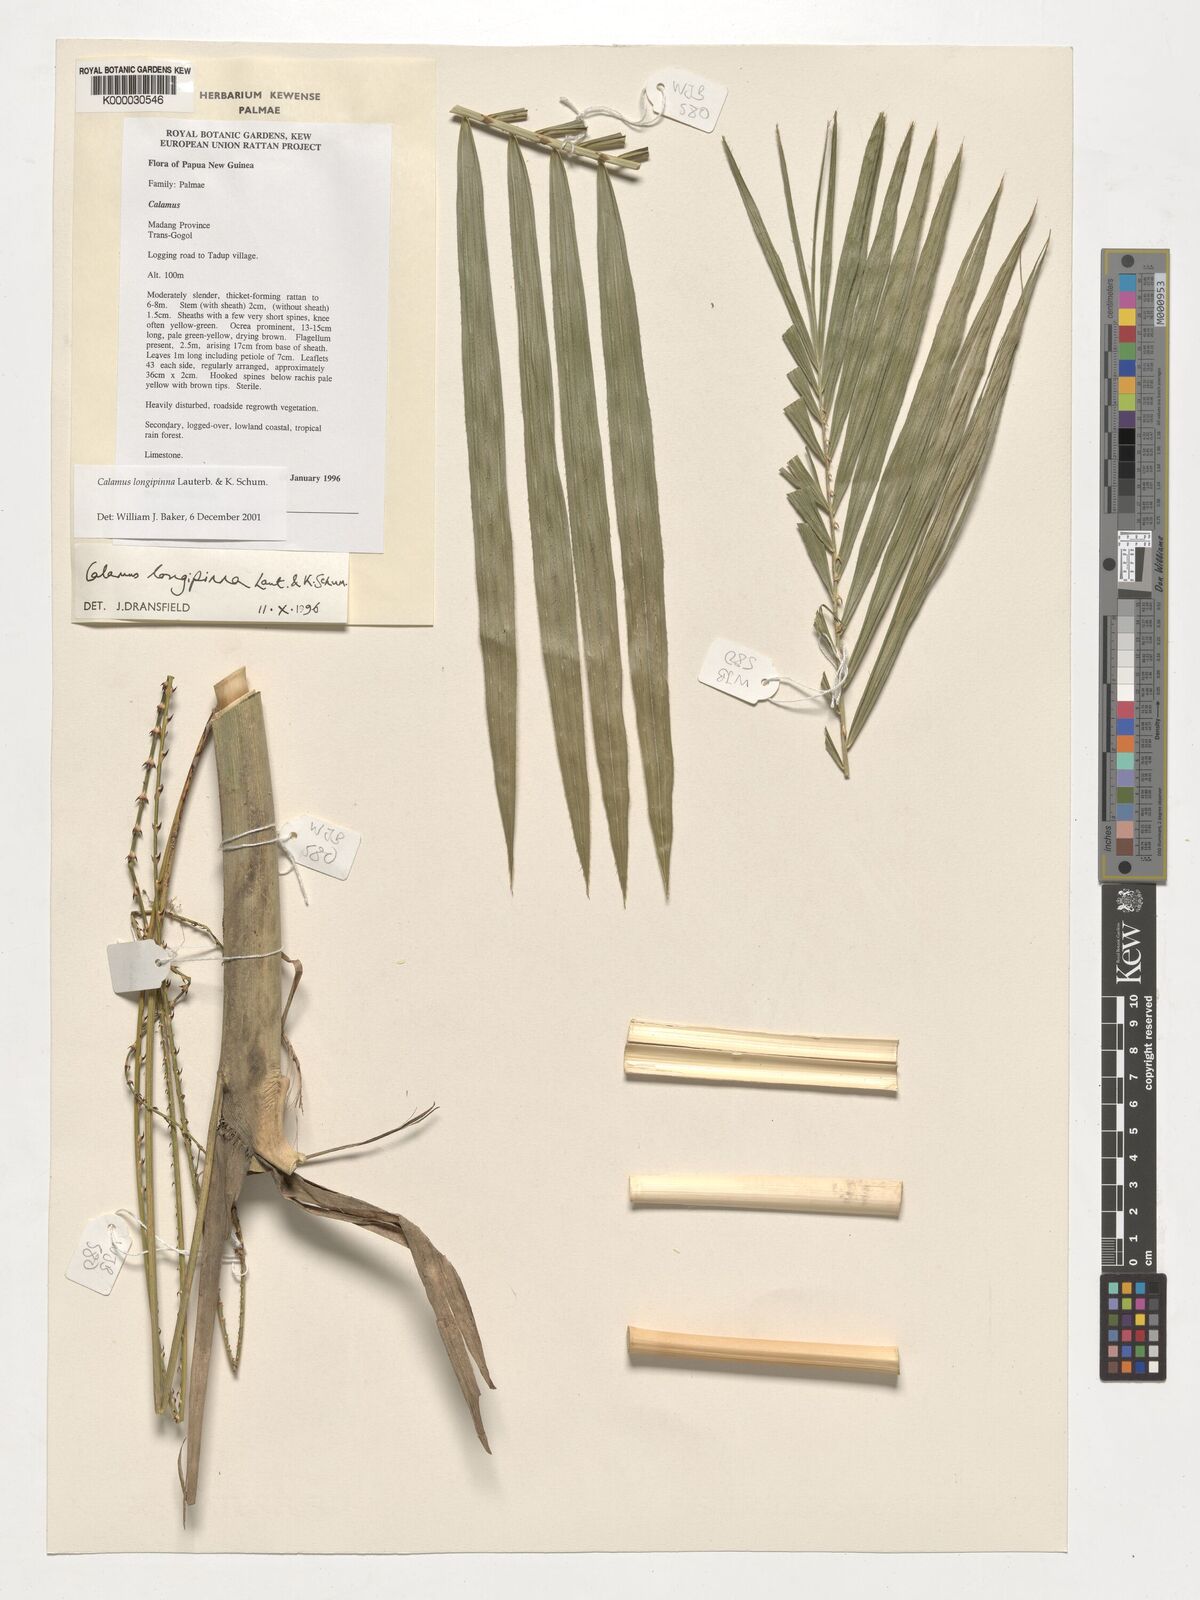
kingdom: Plantae
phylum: Tracheophyta
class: Liliopsida
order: Arecales
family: Arecaceae
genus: Calamus
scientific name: Calamus longipinna
